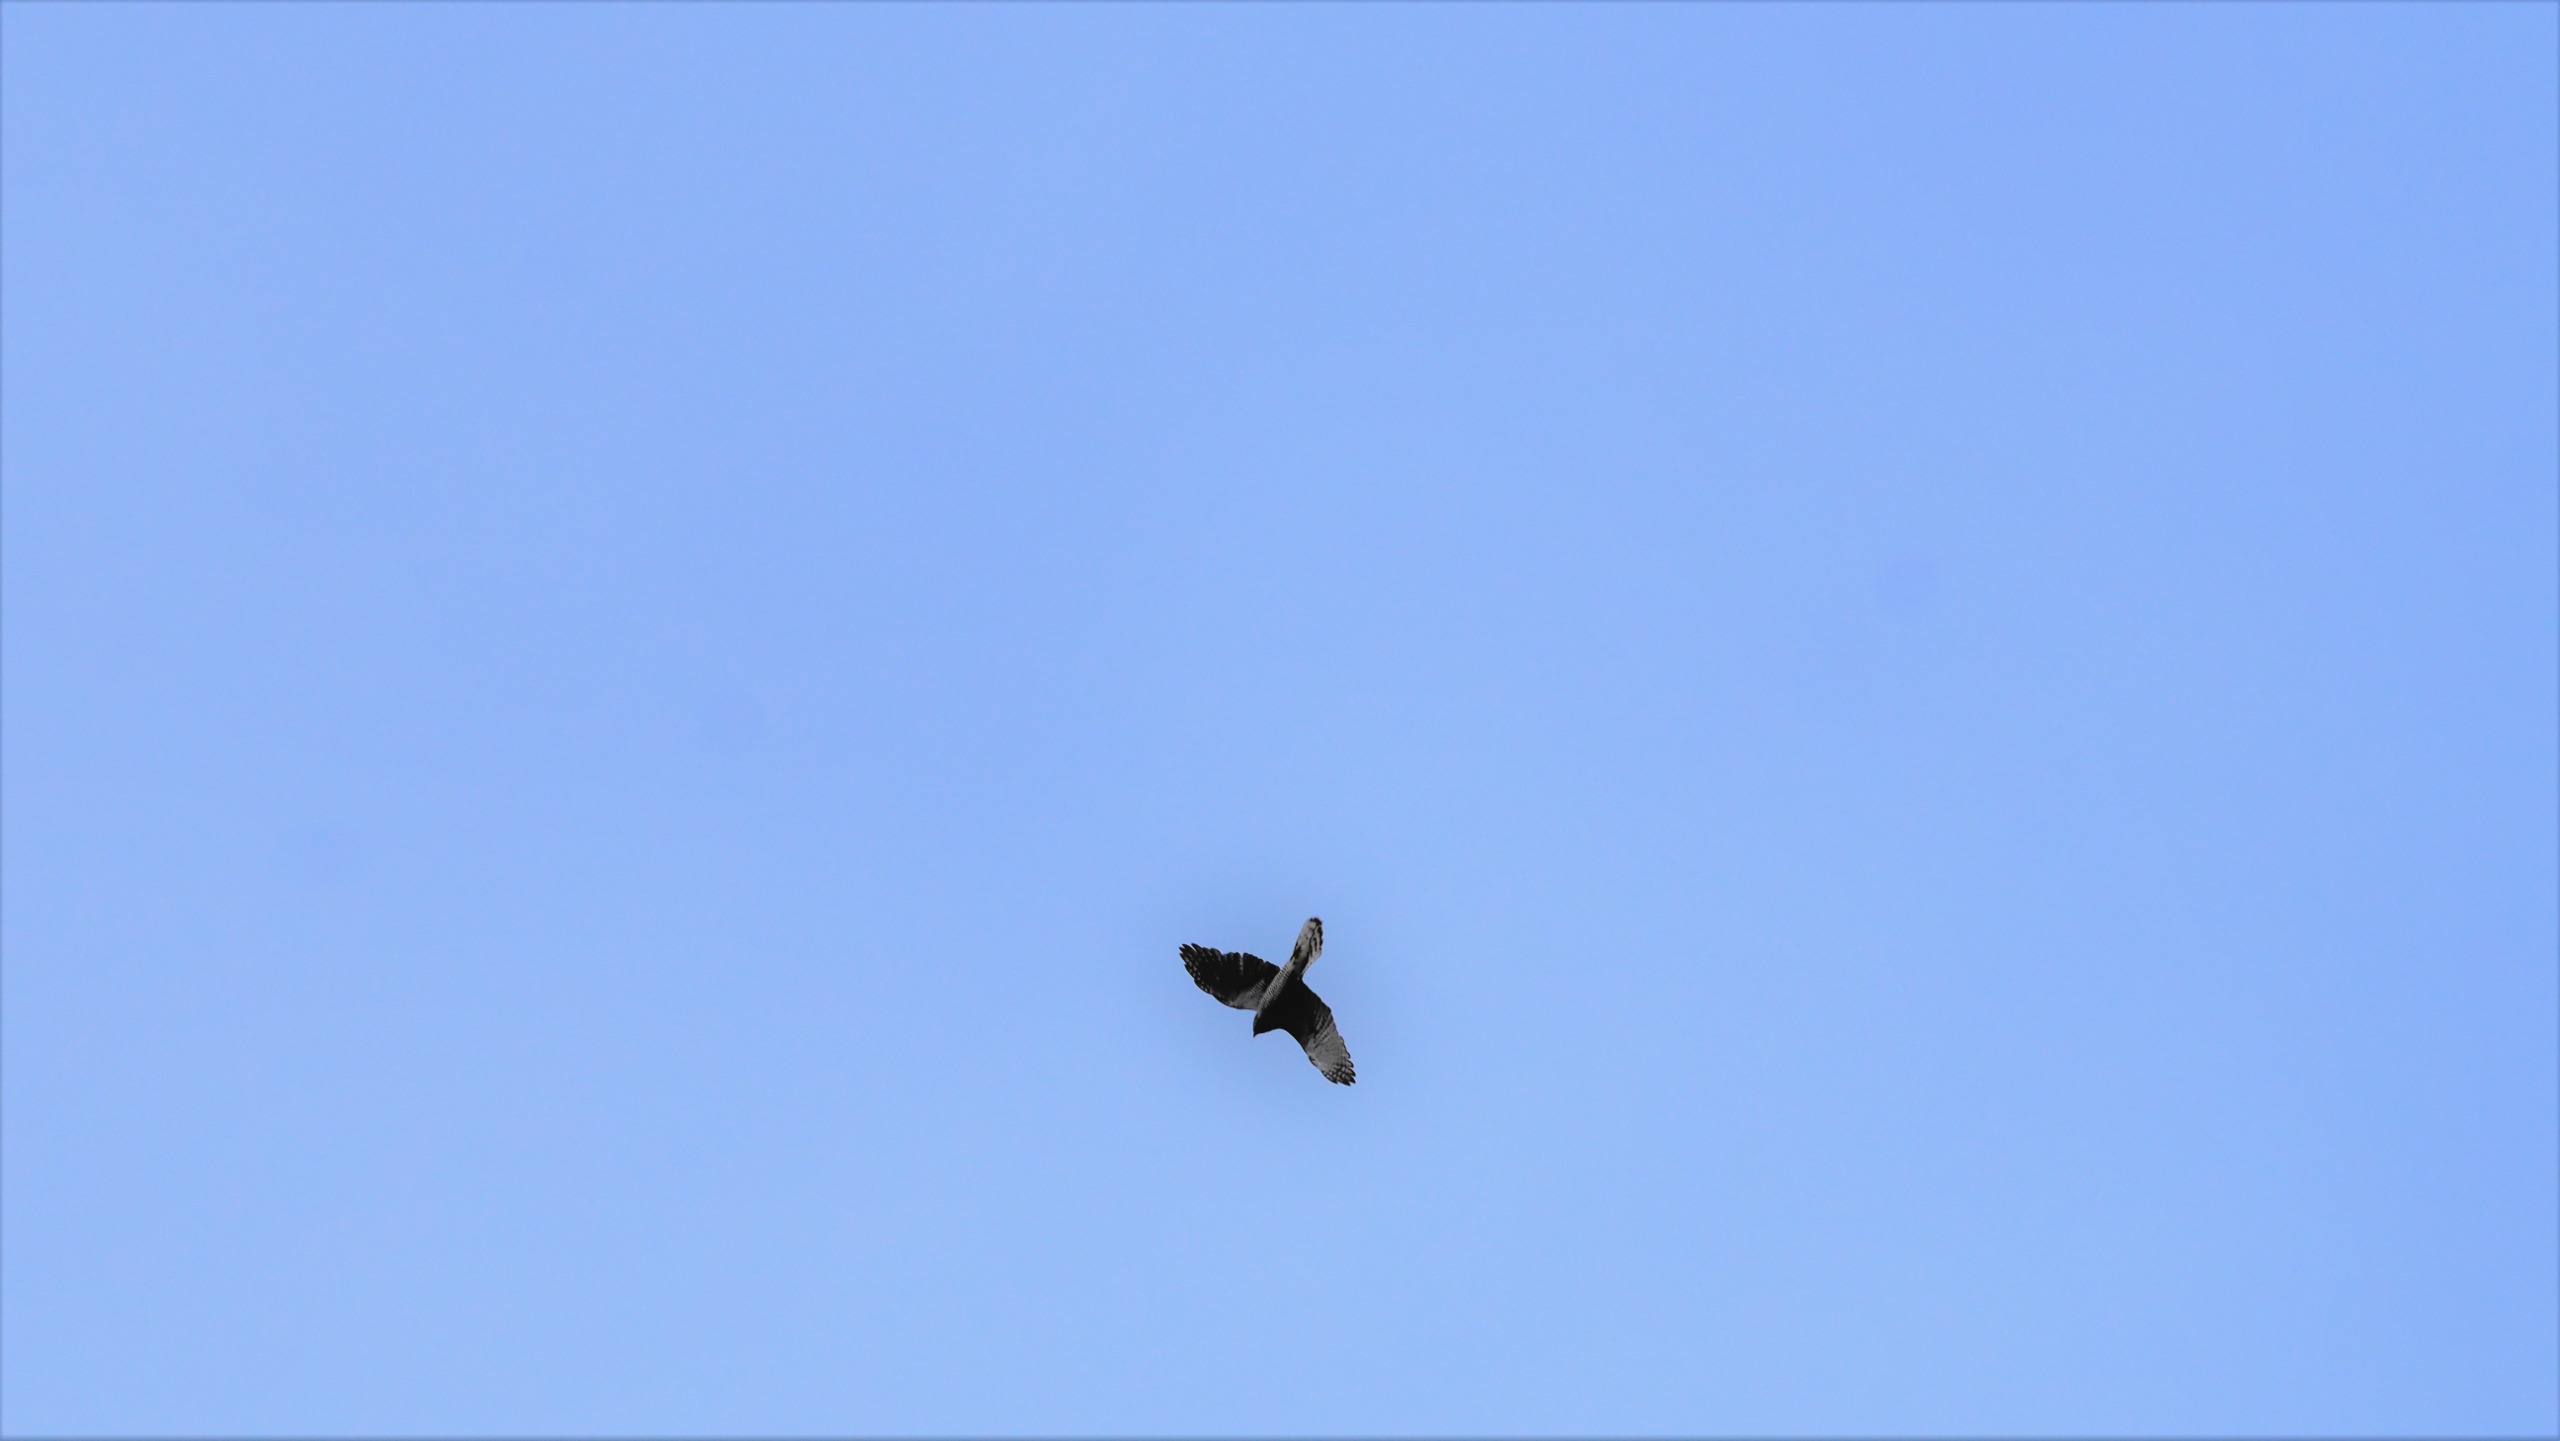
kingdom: Animalia
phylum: Chordata
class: Aves
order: Accipitriformes
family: Accipitridae
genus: Accipiter
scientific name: Accipiter gentilis
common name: Duehøg
